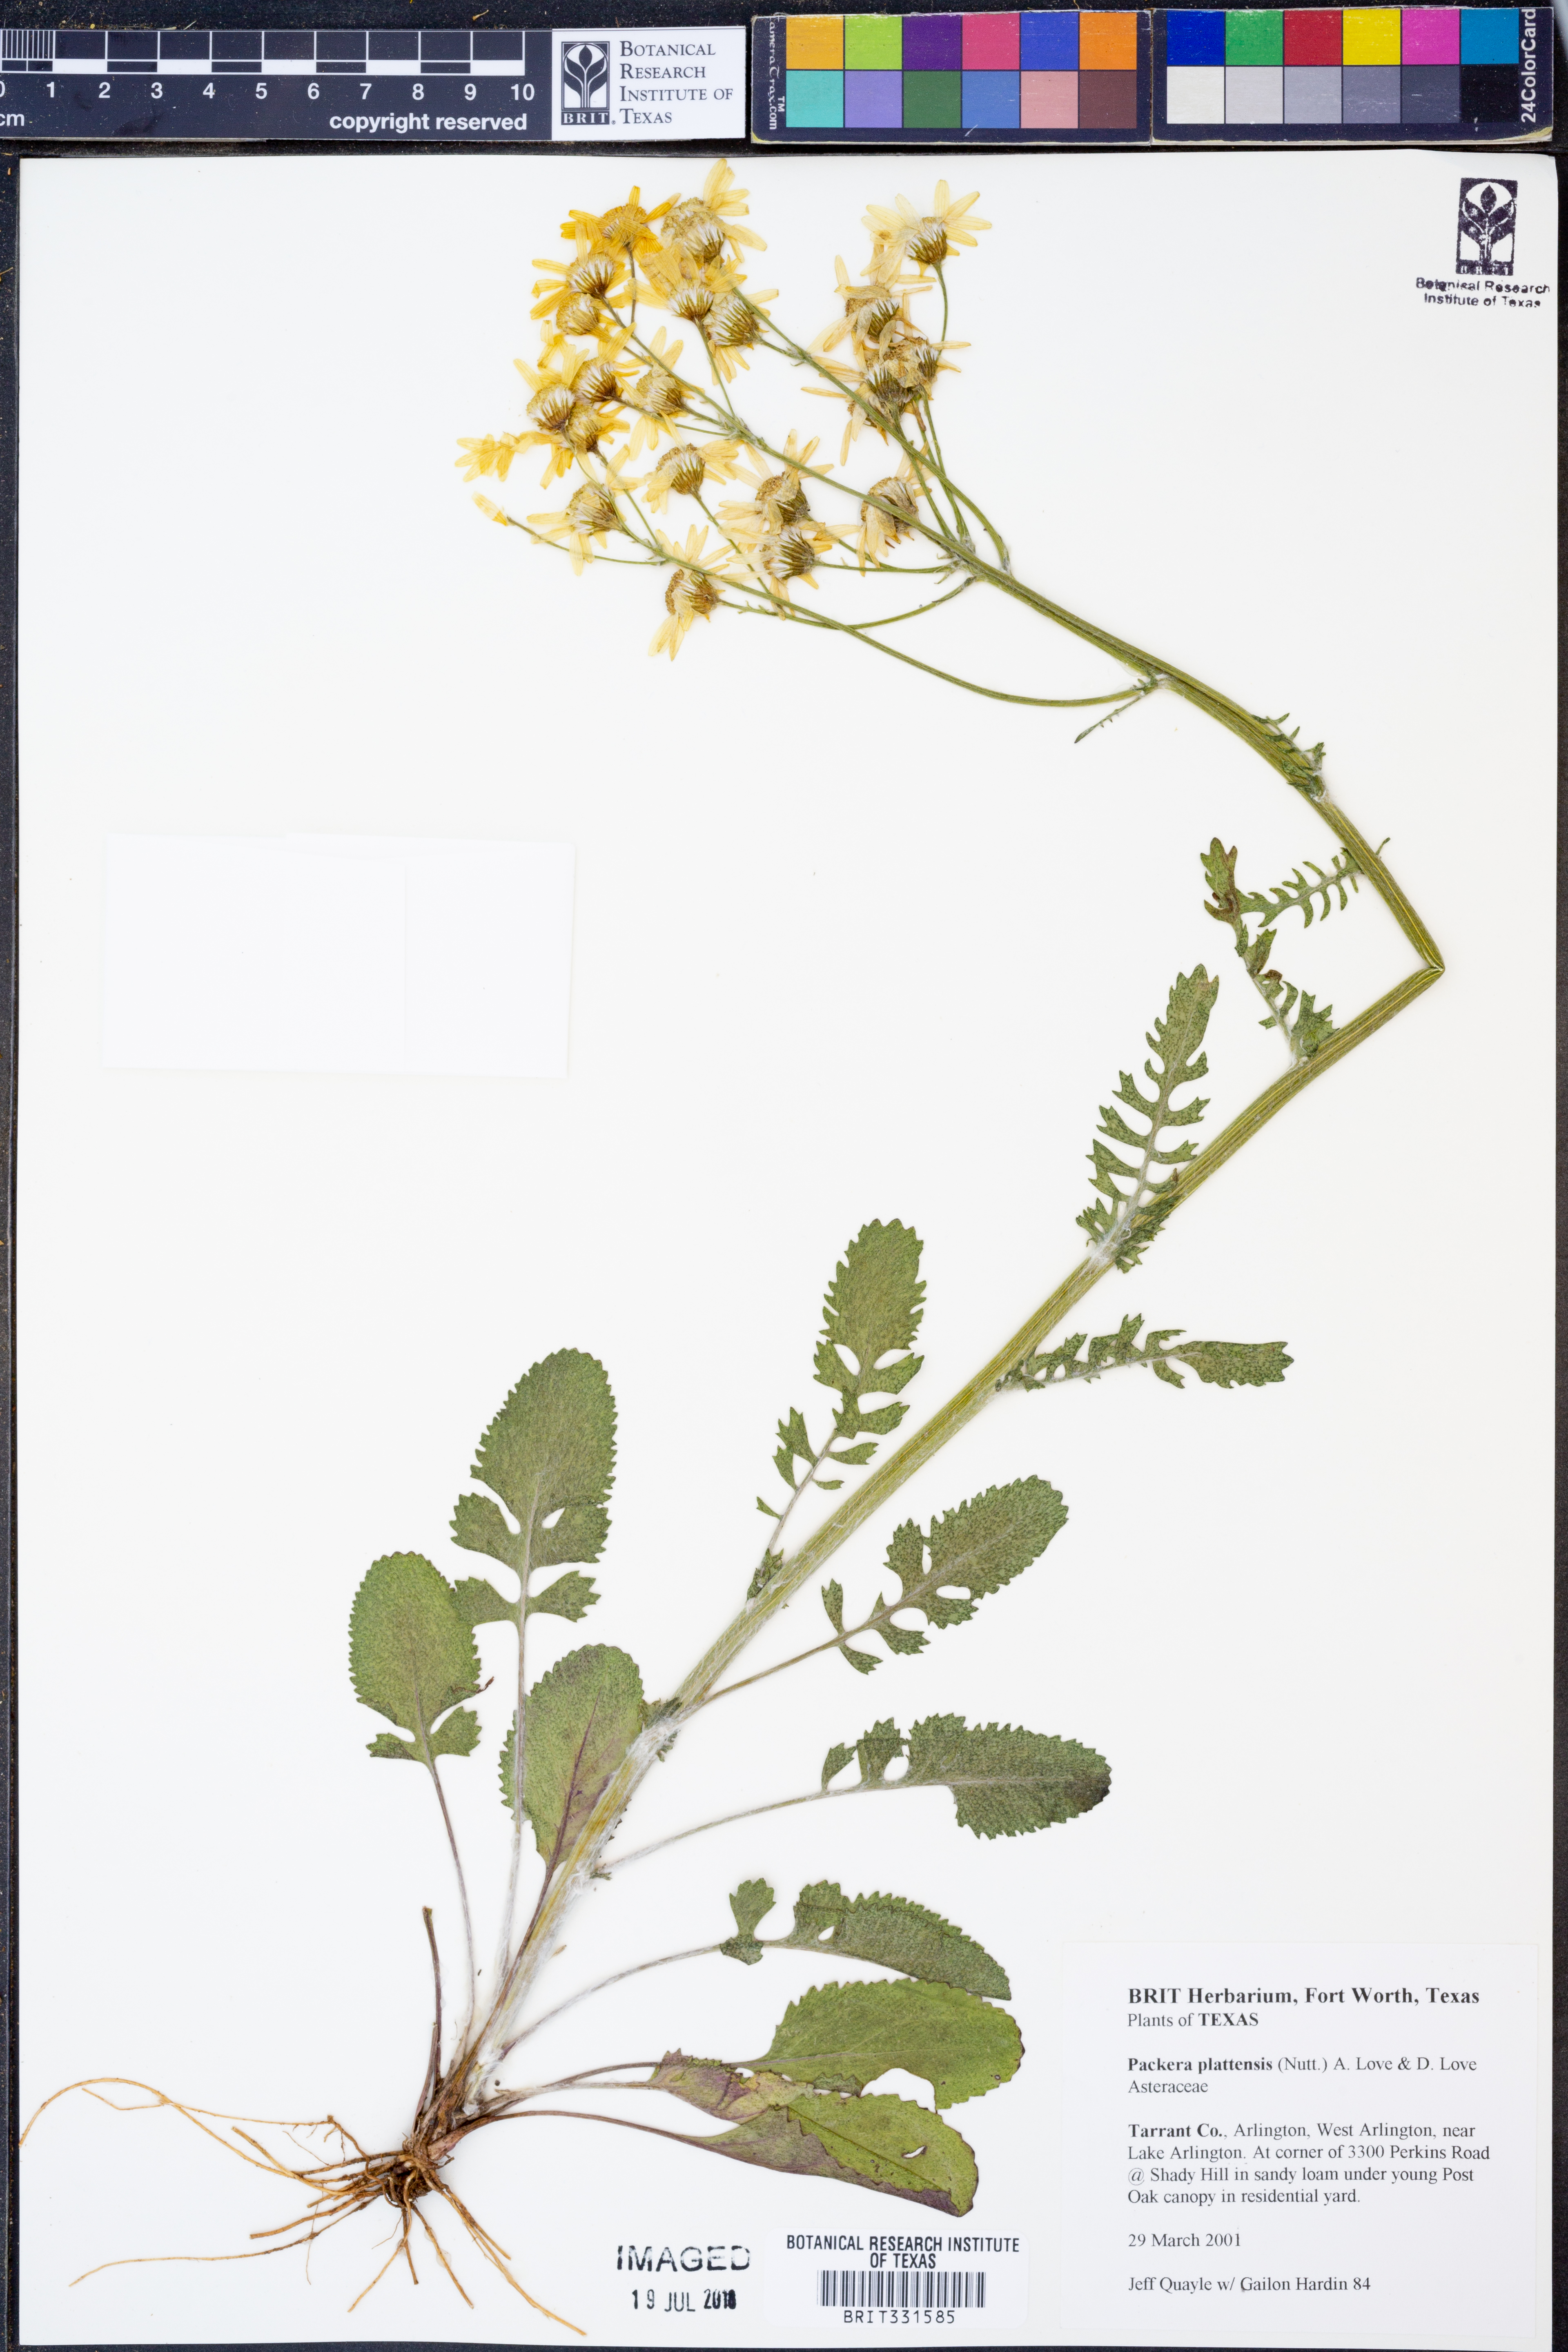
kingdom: Plantae
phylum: Tracheophyta
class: Magnoliopsida
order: Asterales
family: Asteraceae
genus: Packera
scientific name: Packera plattensis
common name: Prairie groundsel
